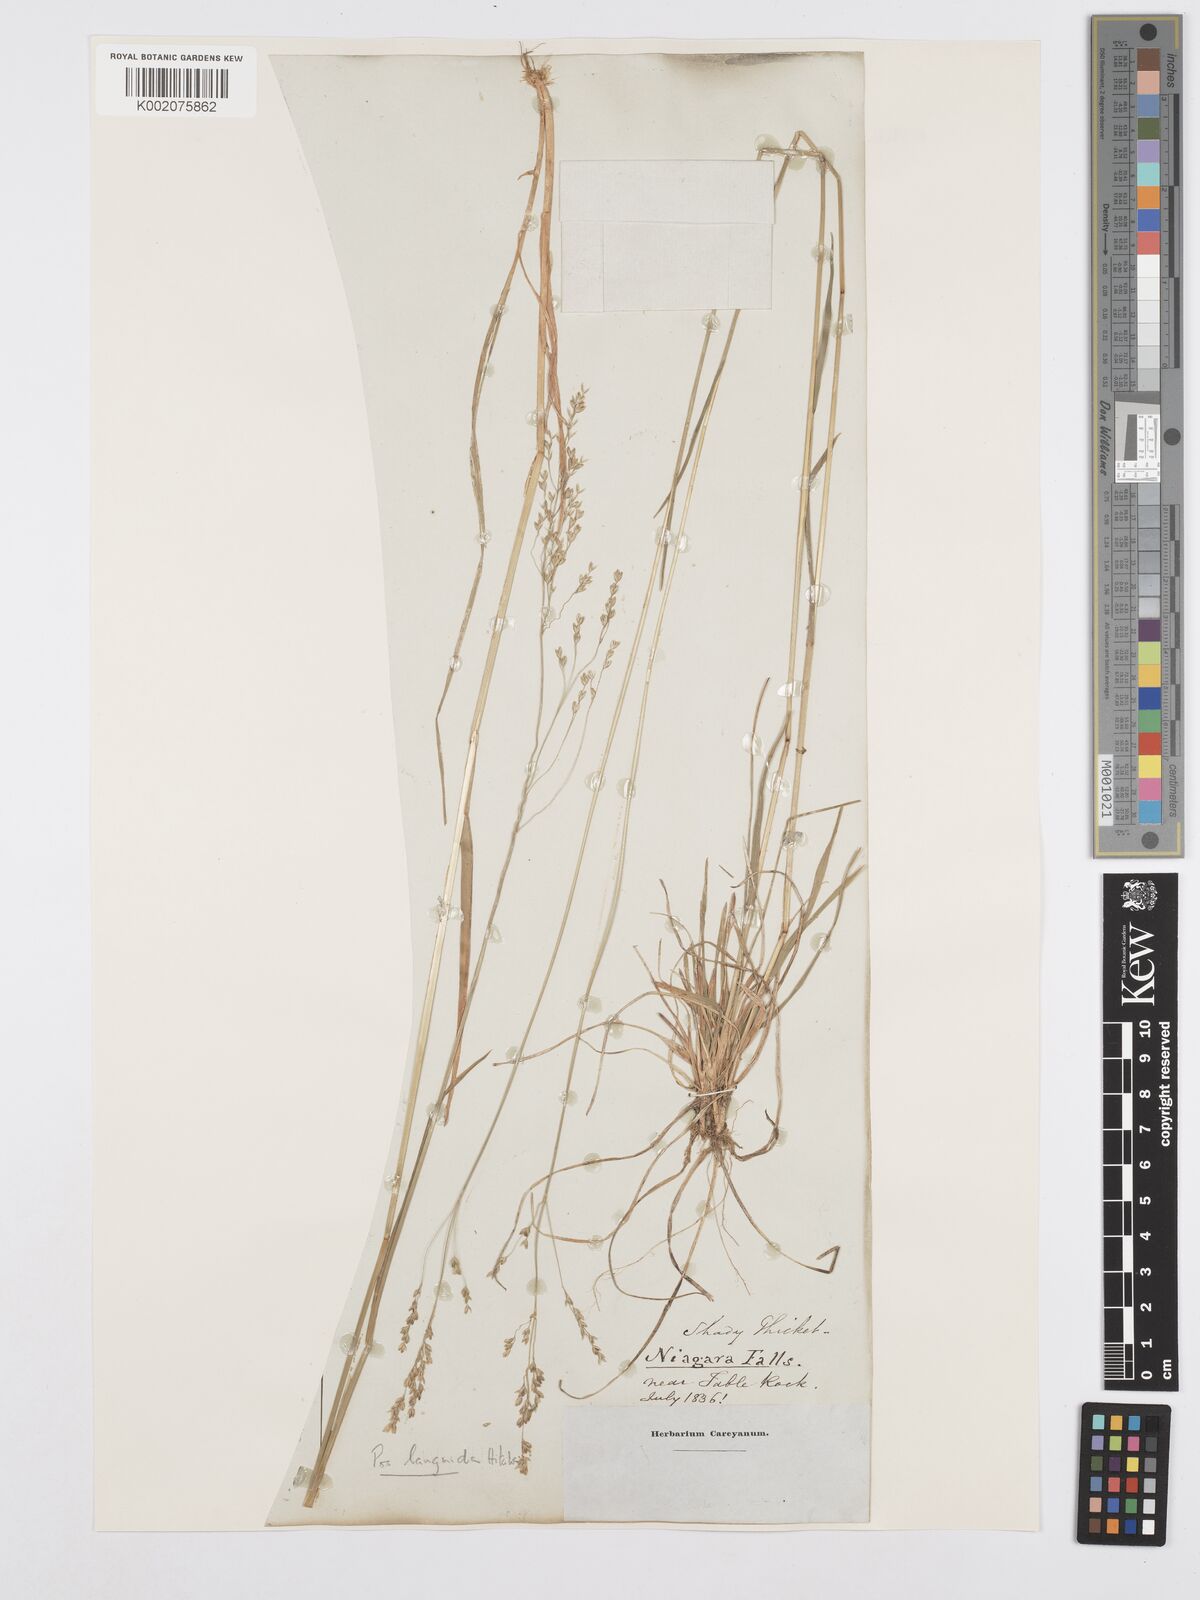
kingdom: Plantae
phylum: Tracheophyta
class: Liliopsida
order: Poales
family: Poaceae
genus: Poa
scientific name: Poa saltuensis
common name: Bushy pasture speargrass
